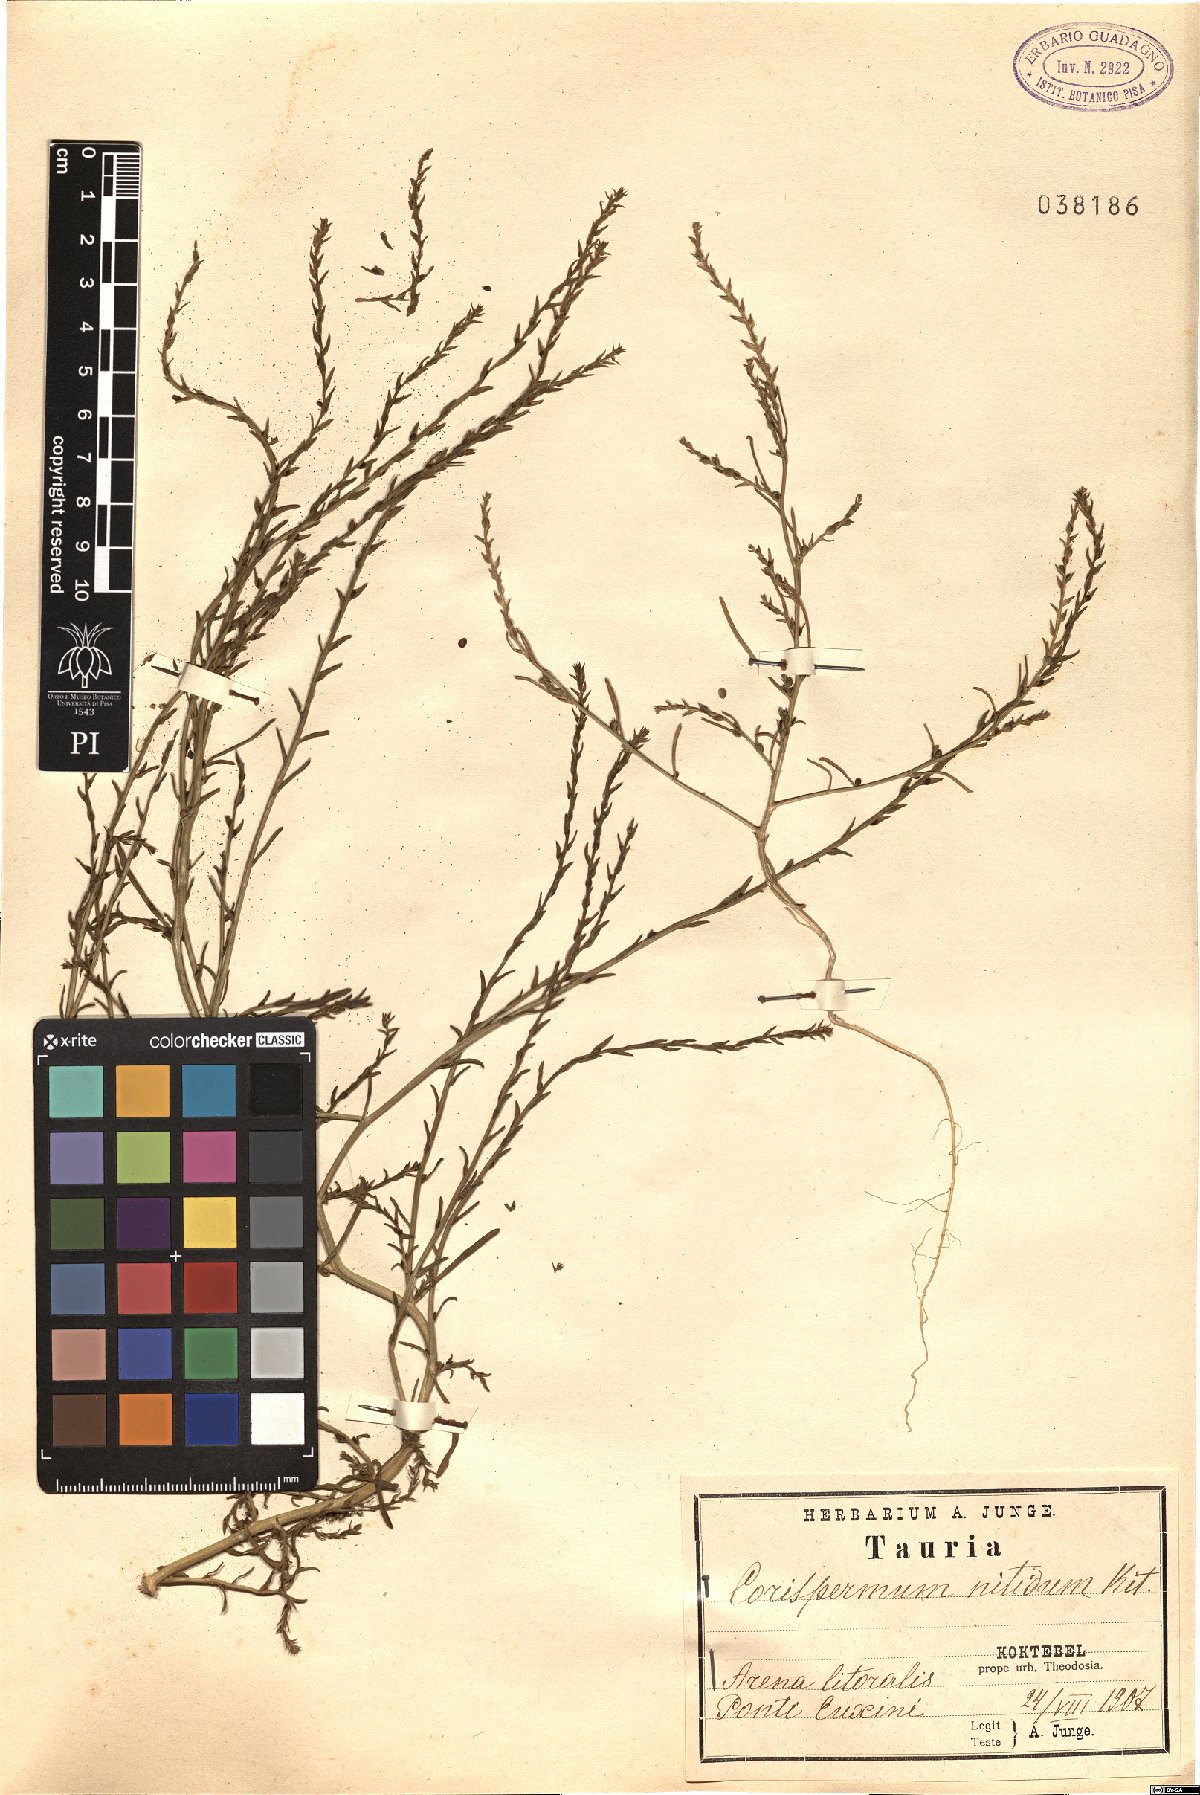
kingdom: Plantae
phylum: Tracheophyta
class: Magnoliopsida
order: Caryophyllales
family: Amaranthaceae
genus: Corispermum
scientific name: Corispermum nitidum
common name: Bugseed
